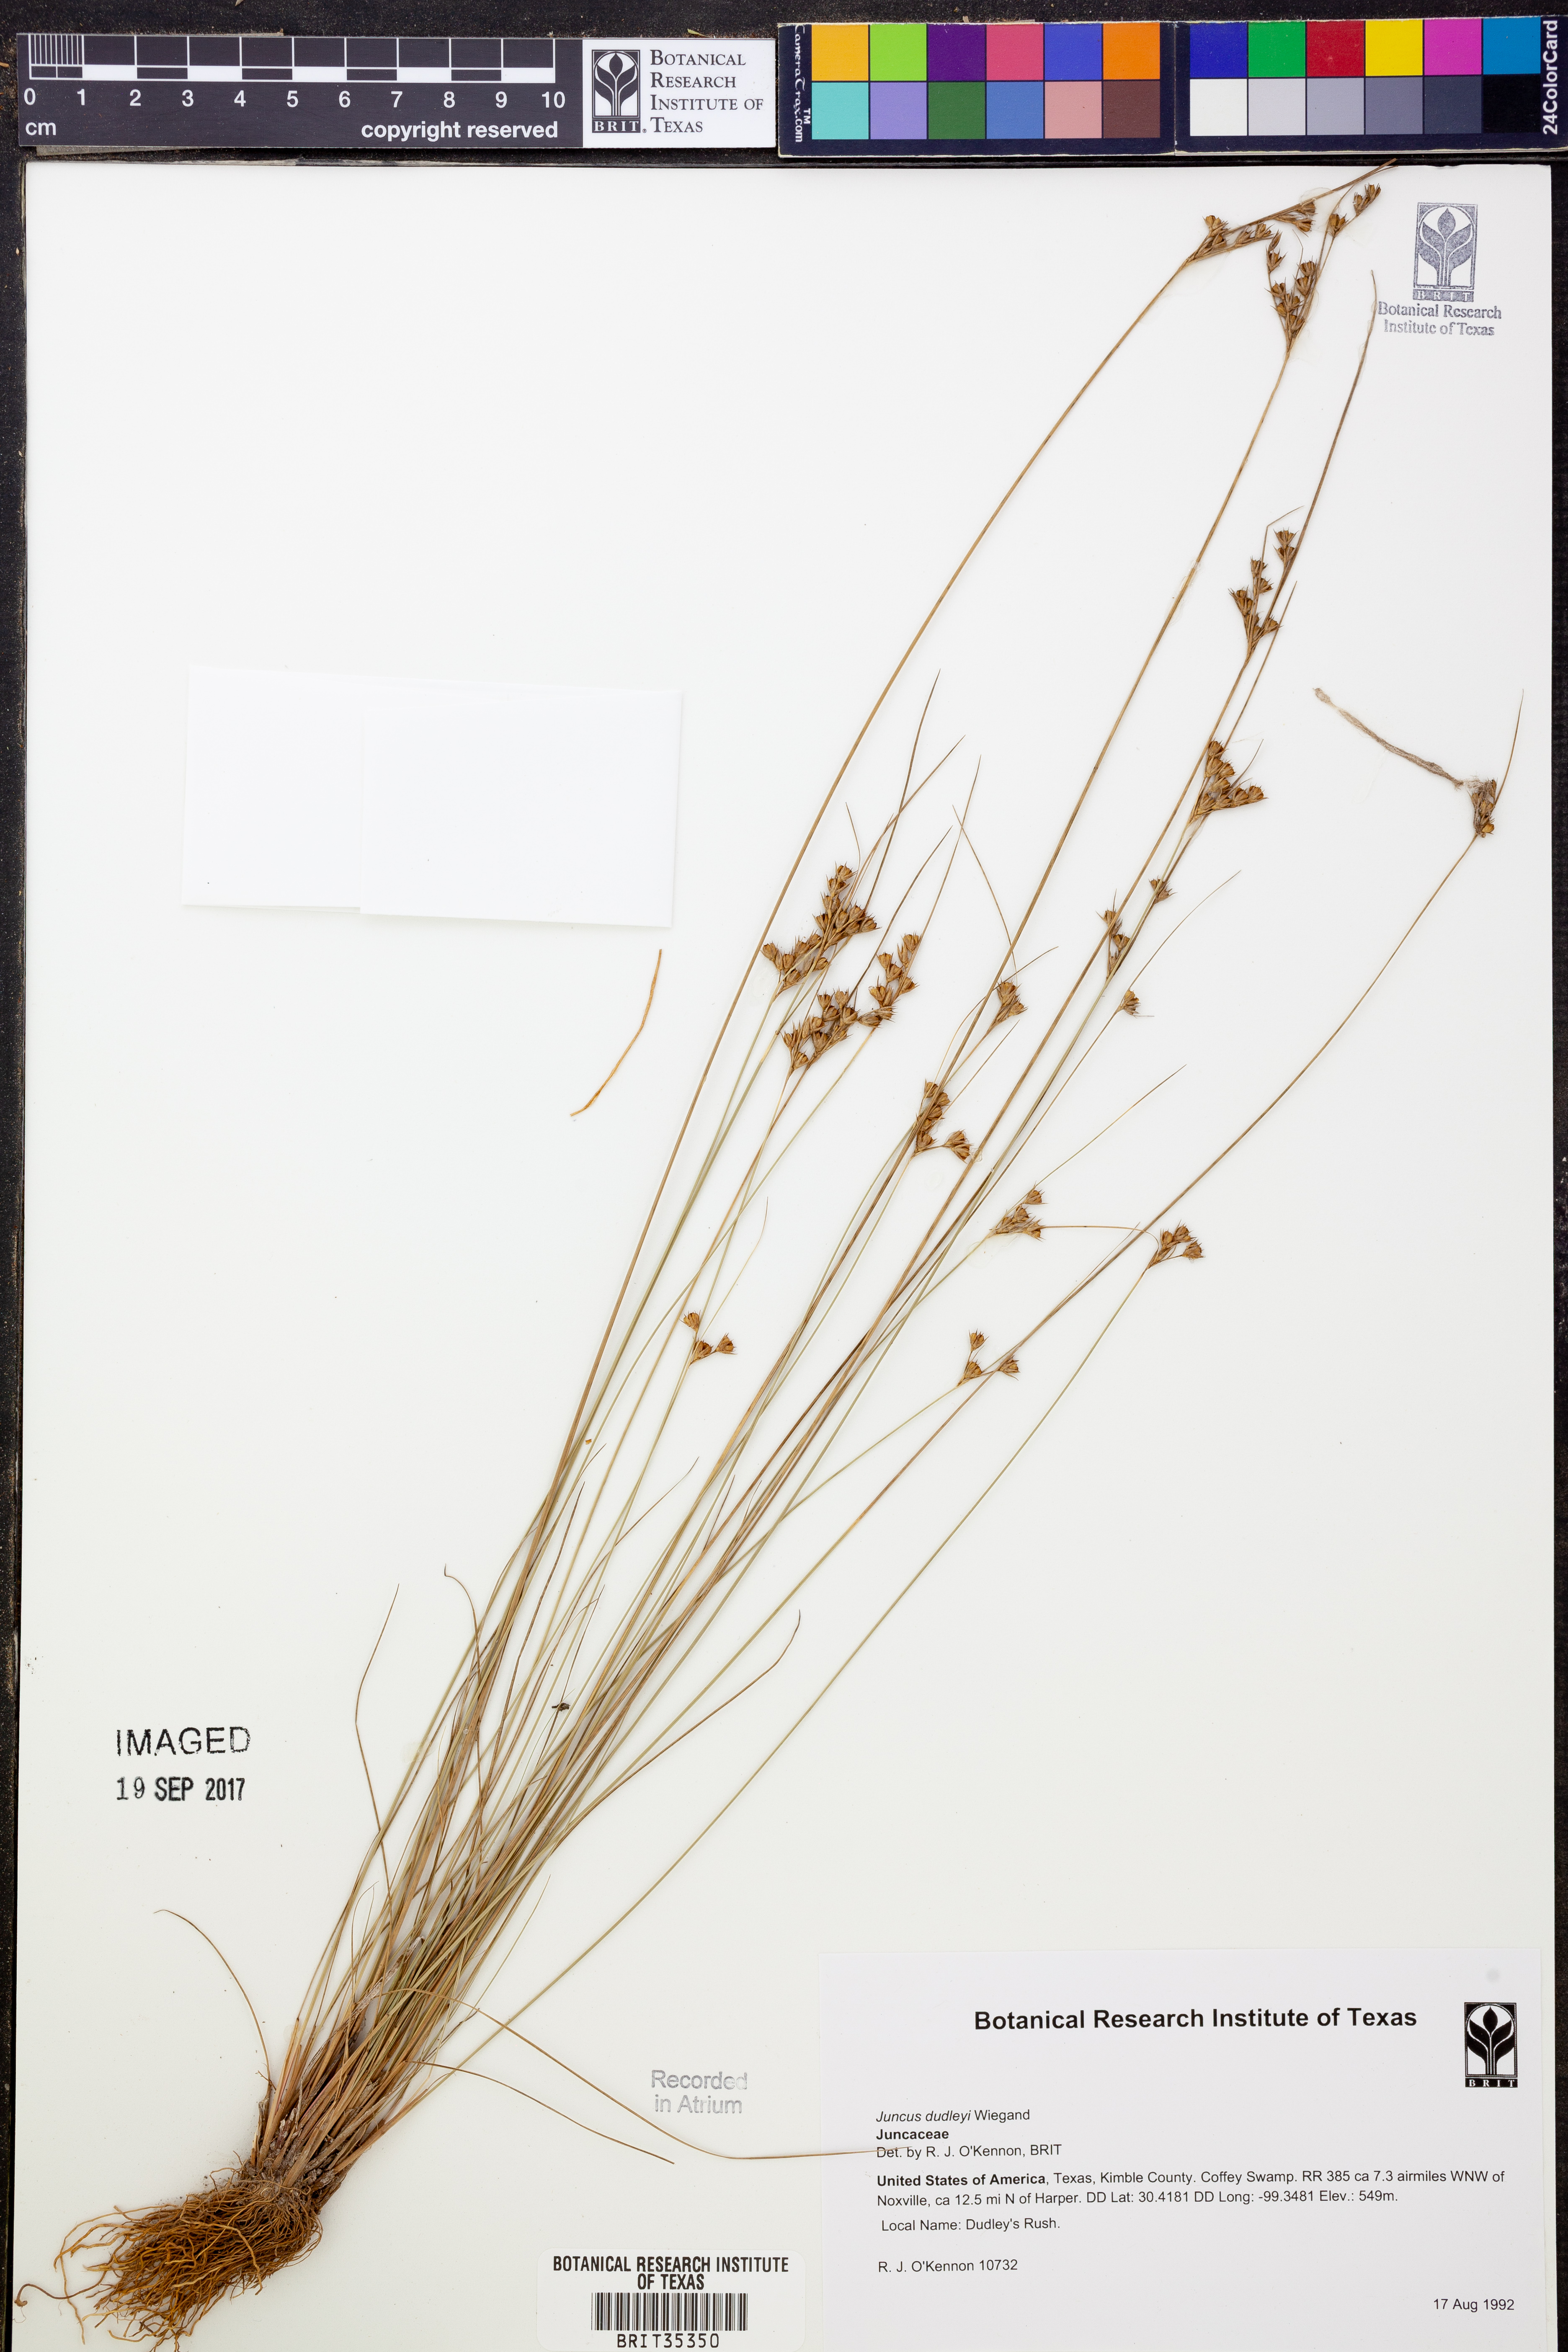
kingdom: Plantae
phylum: Tracheophyta
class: Liliopsida
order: Poales
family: Juncaceae
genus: Juncus
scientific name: Juncus dudleyi
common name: Dudley's rush
